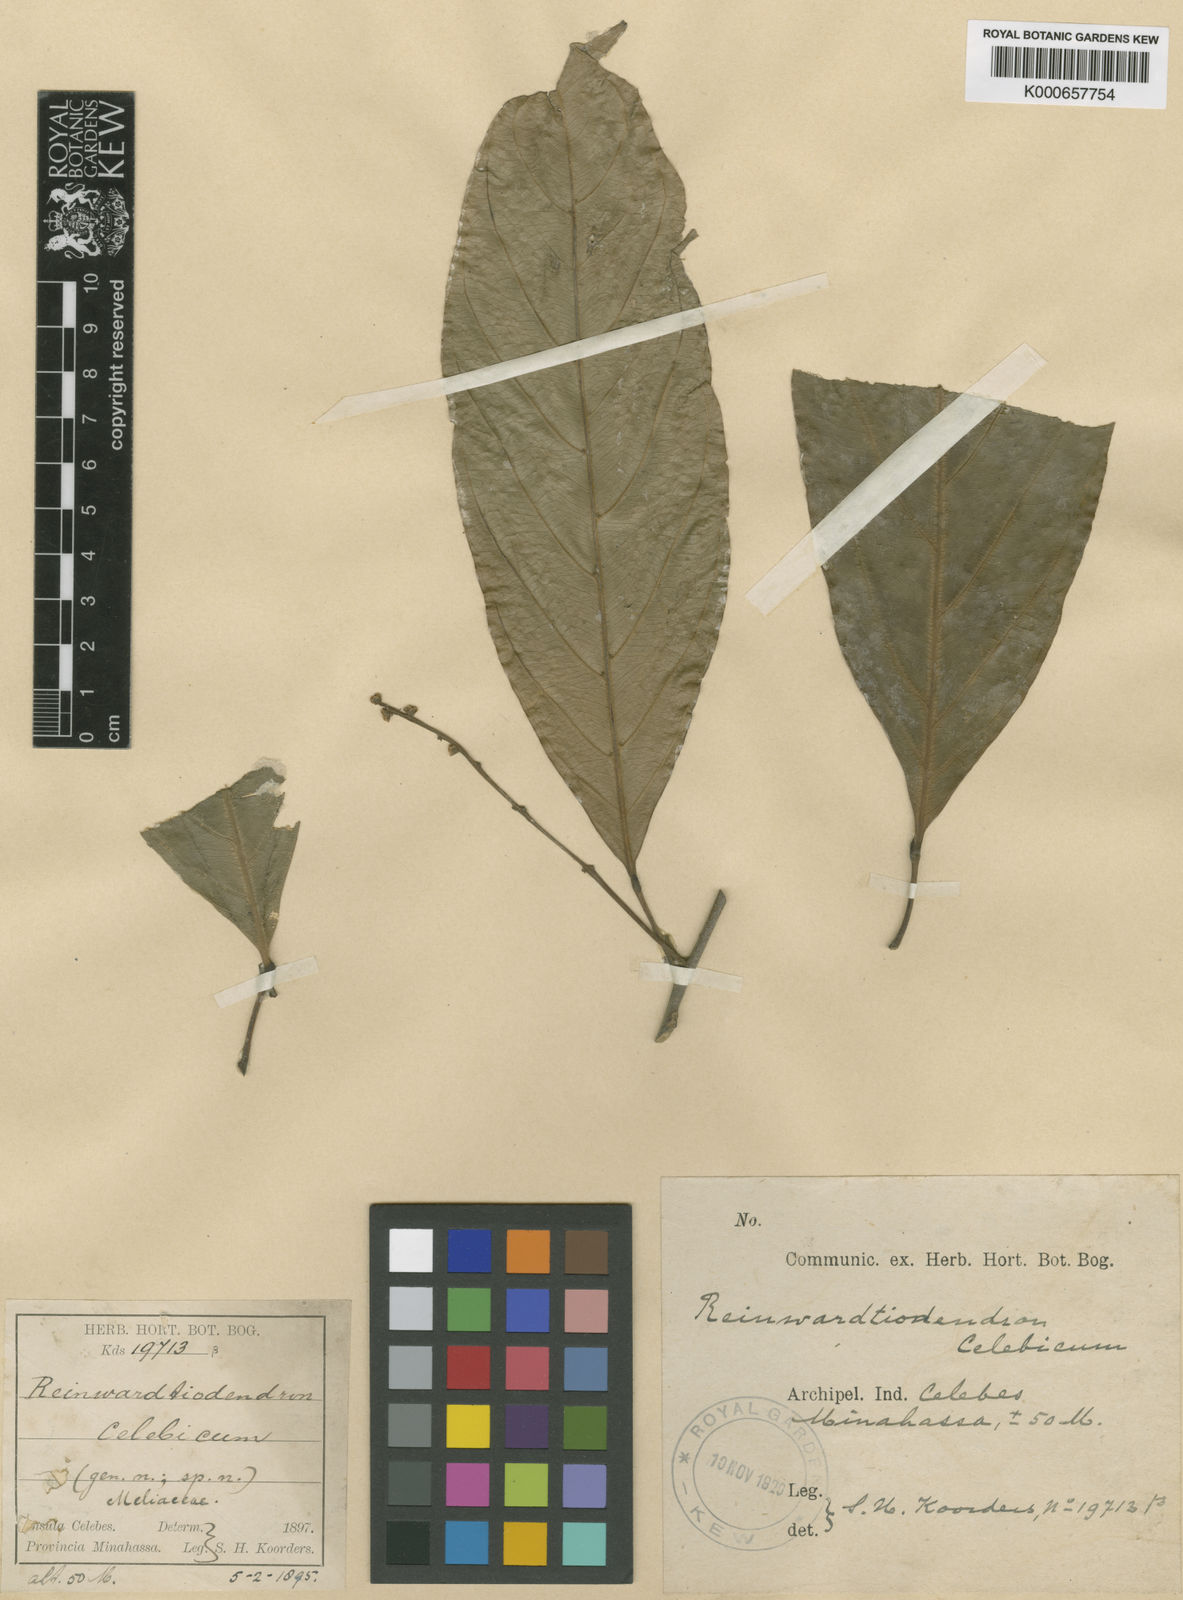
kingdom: Plantae
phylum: Tracheophyta
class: Magnoliopsida
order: Sapindales
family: Meliaceae
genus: Reinwardtiodendron
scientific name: Reinwardtiodendron celebicum
